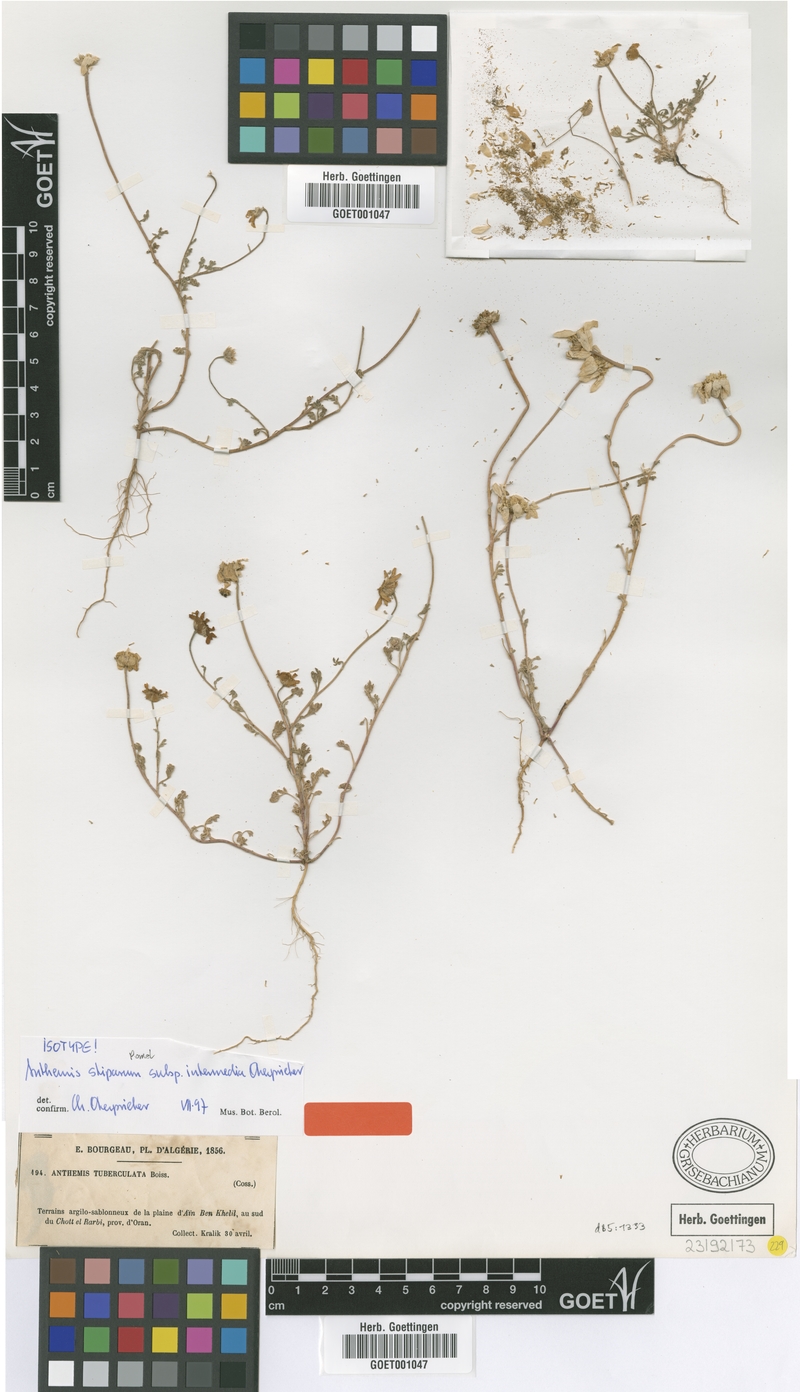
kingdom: Plantae
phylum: Tracheophyta
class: Magnoliopsida
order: Asterales
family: Asteraceae
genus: Anthemis
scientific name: Anthemis stiparum
